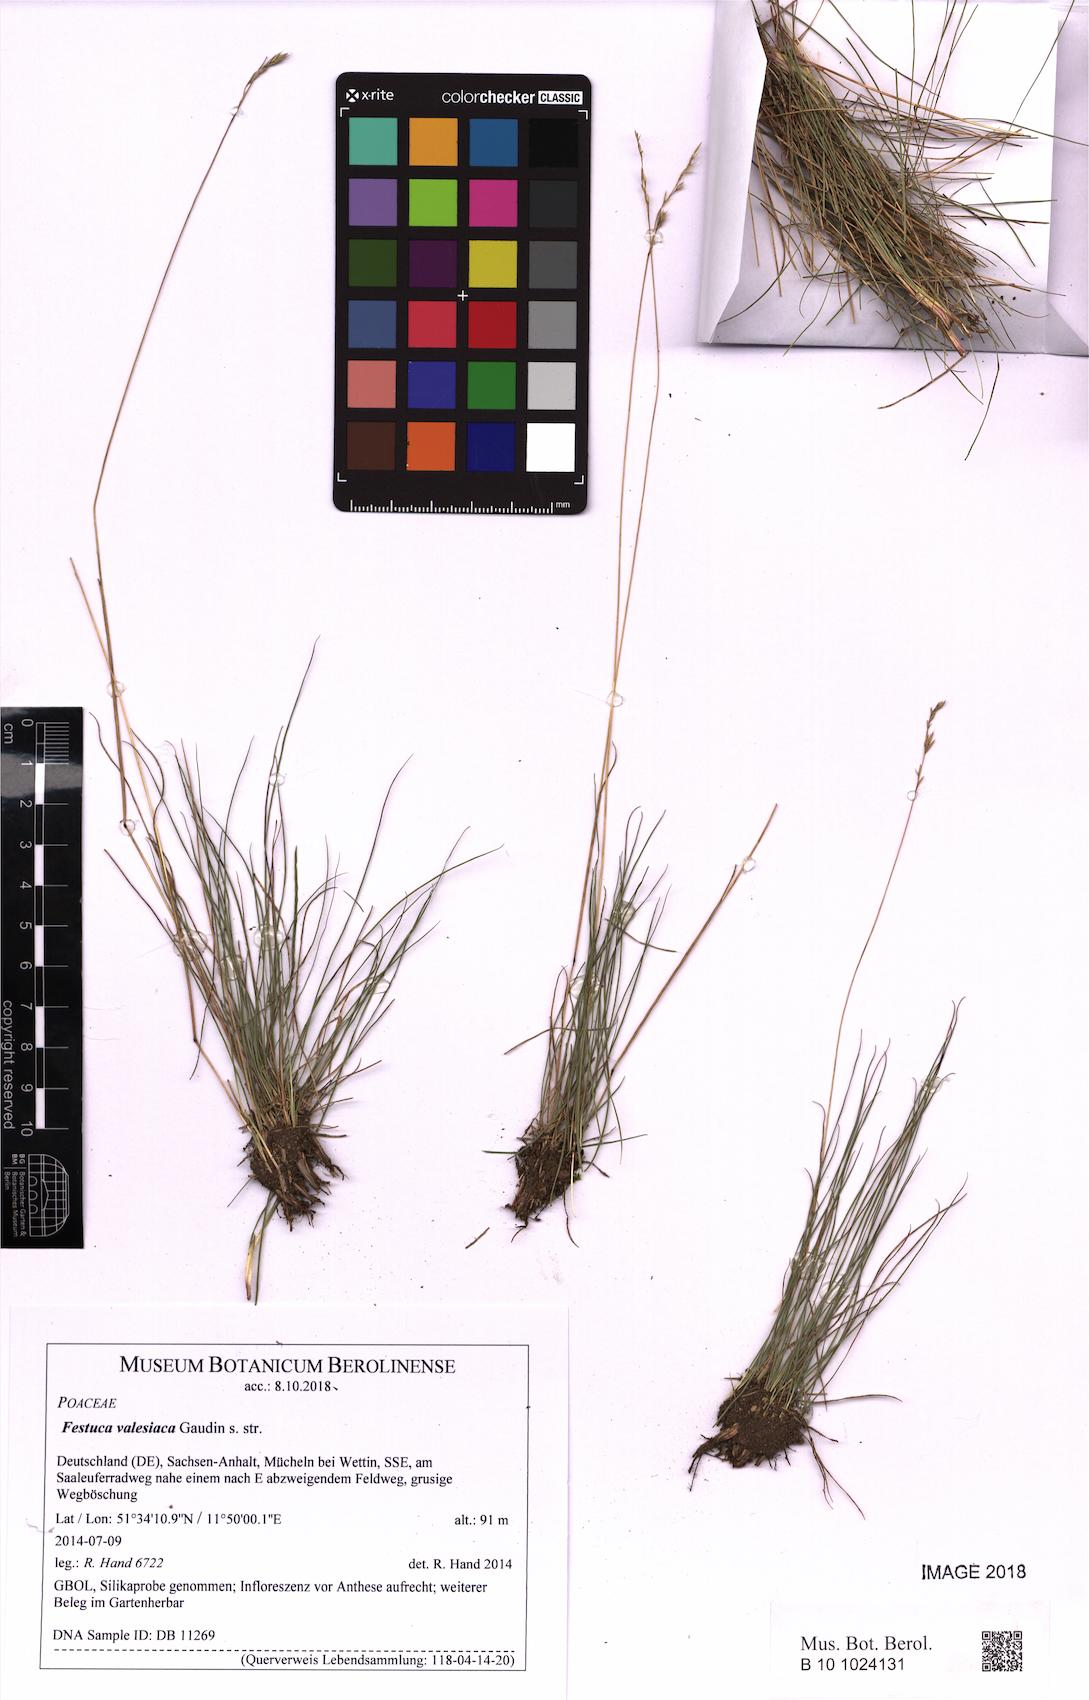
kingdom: Plantae
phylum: Tracheophyta
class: Liliopsida
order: Poales
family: Poaceae
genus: Festuca
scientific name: Festuca valesiaca
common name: Volga fescue
